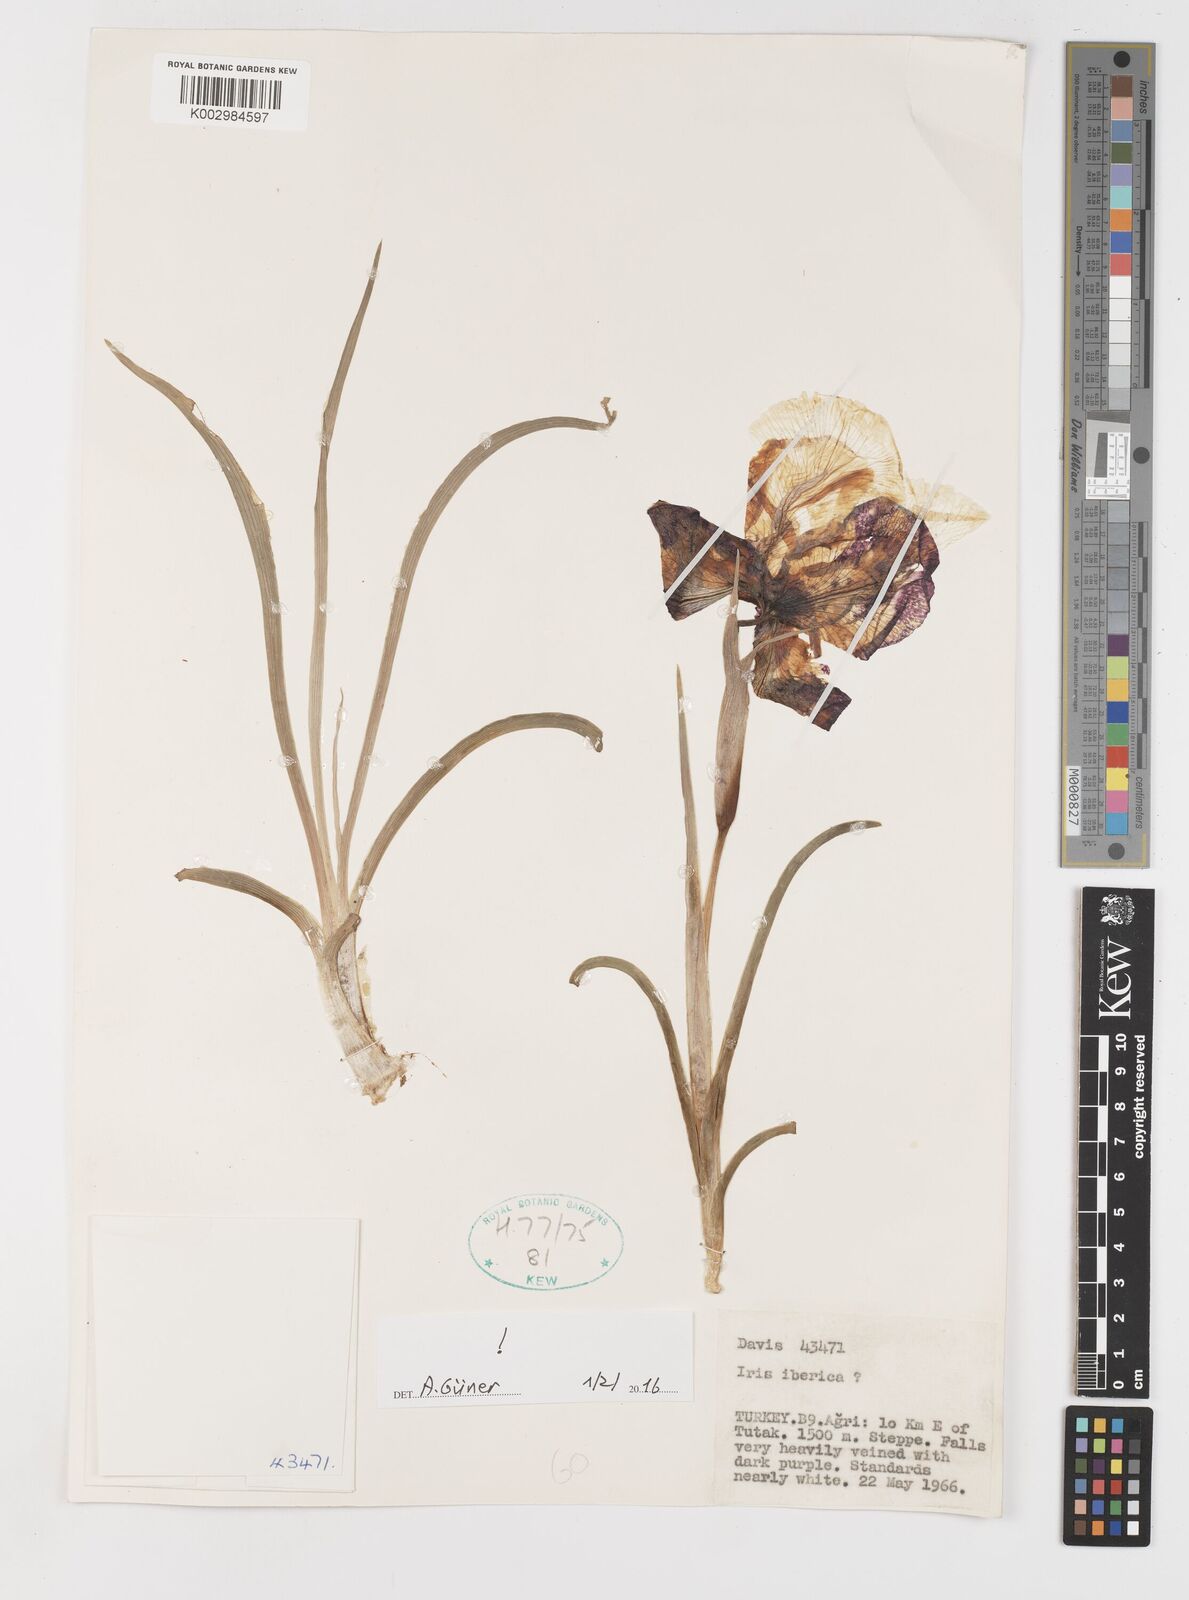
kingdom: Plantae
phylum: Tracheophyta
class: Liliopsida
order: Asparagales
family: Iridaceae
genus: Iris
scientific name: Iris iberica
